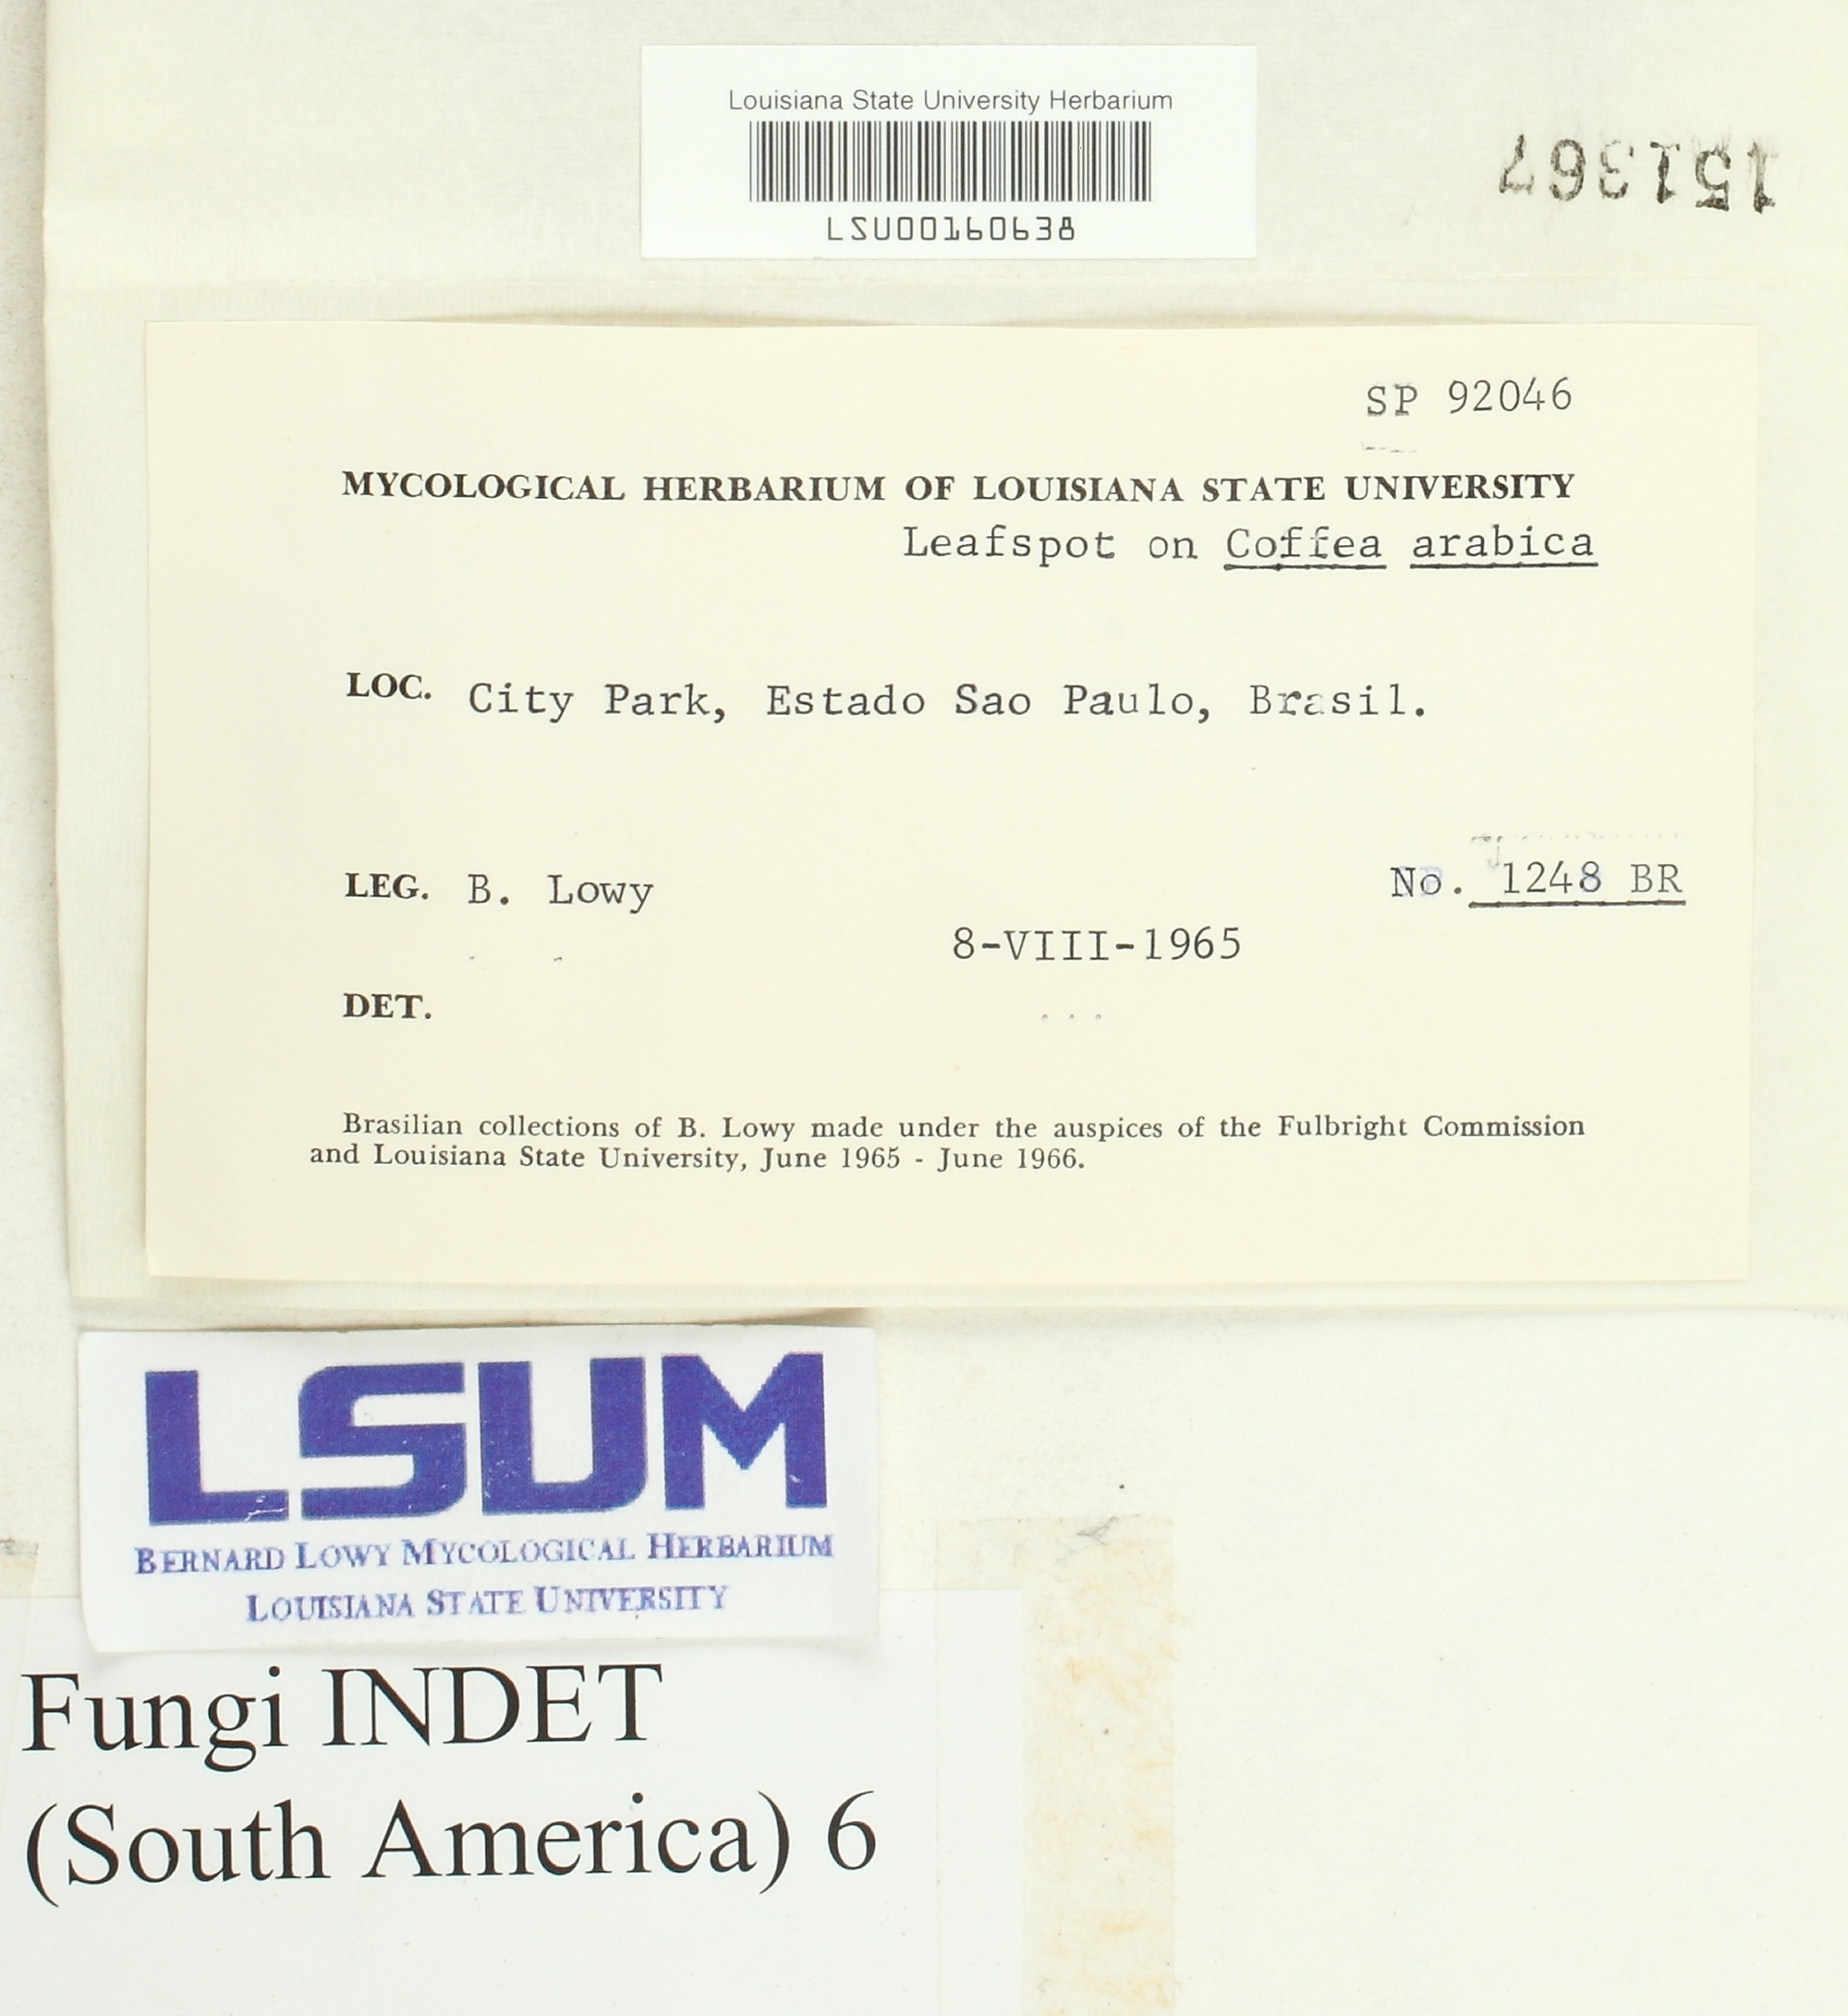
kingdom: Fungi
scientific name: Fungi
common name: Fungi
